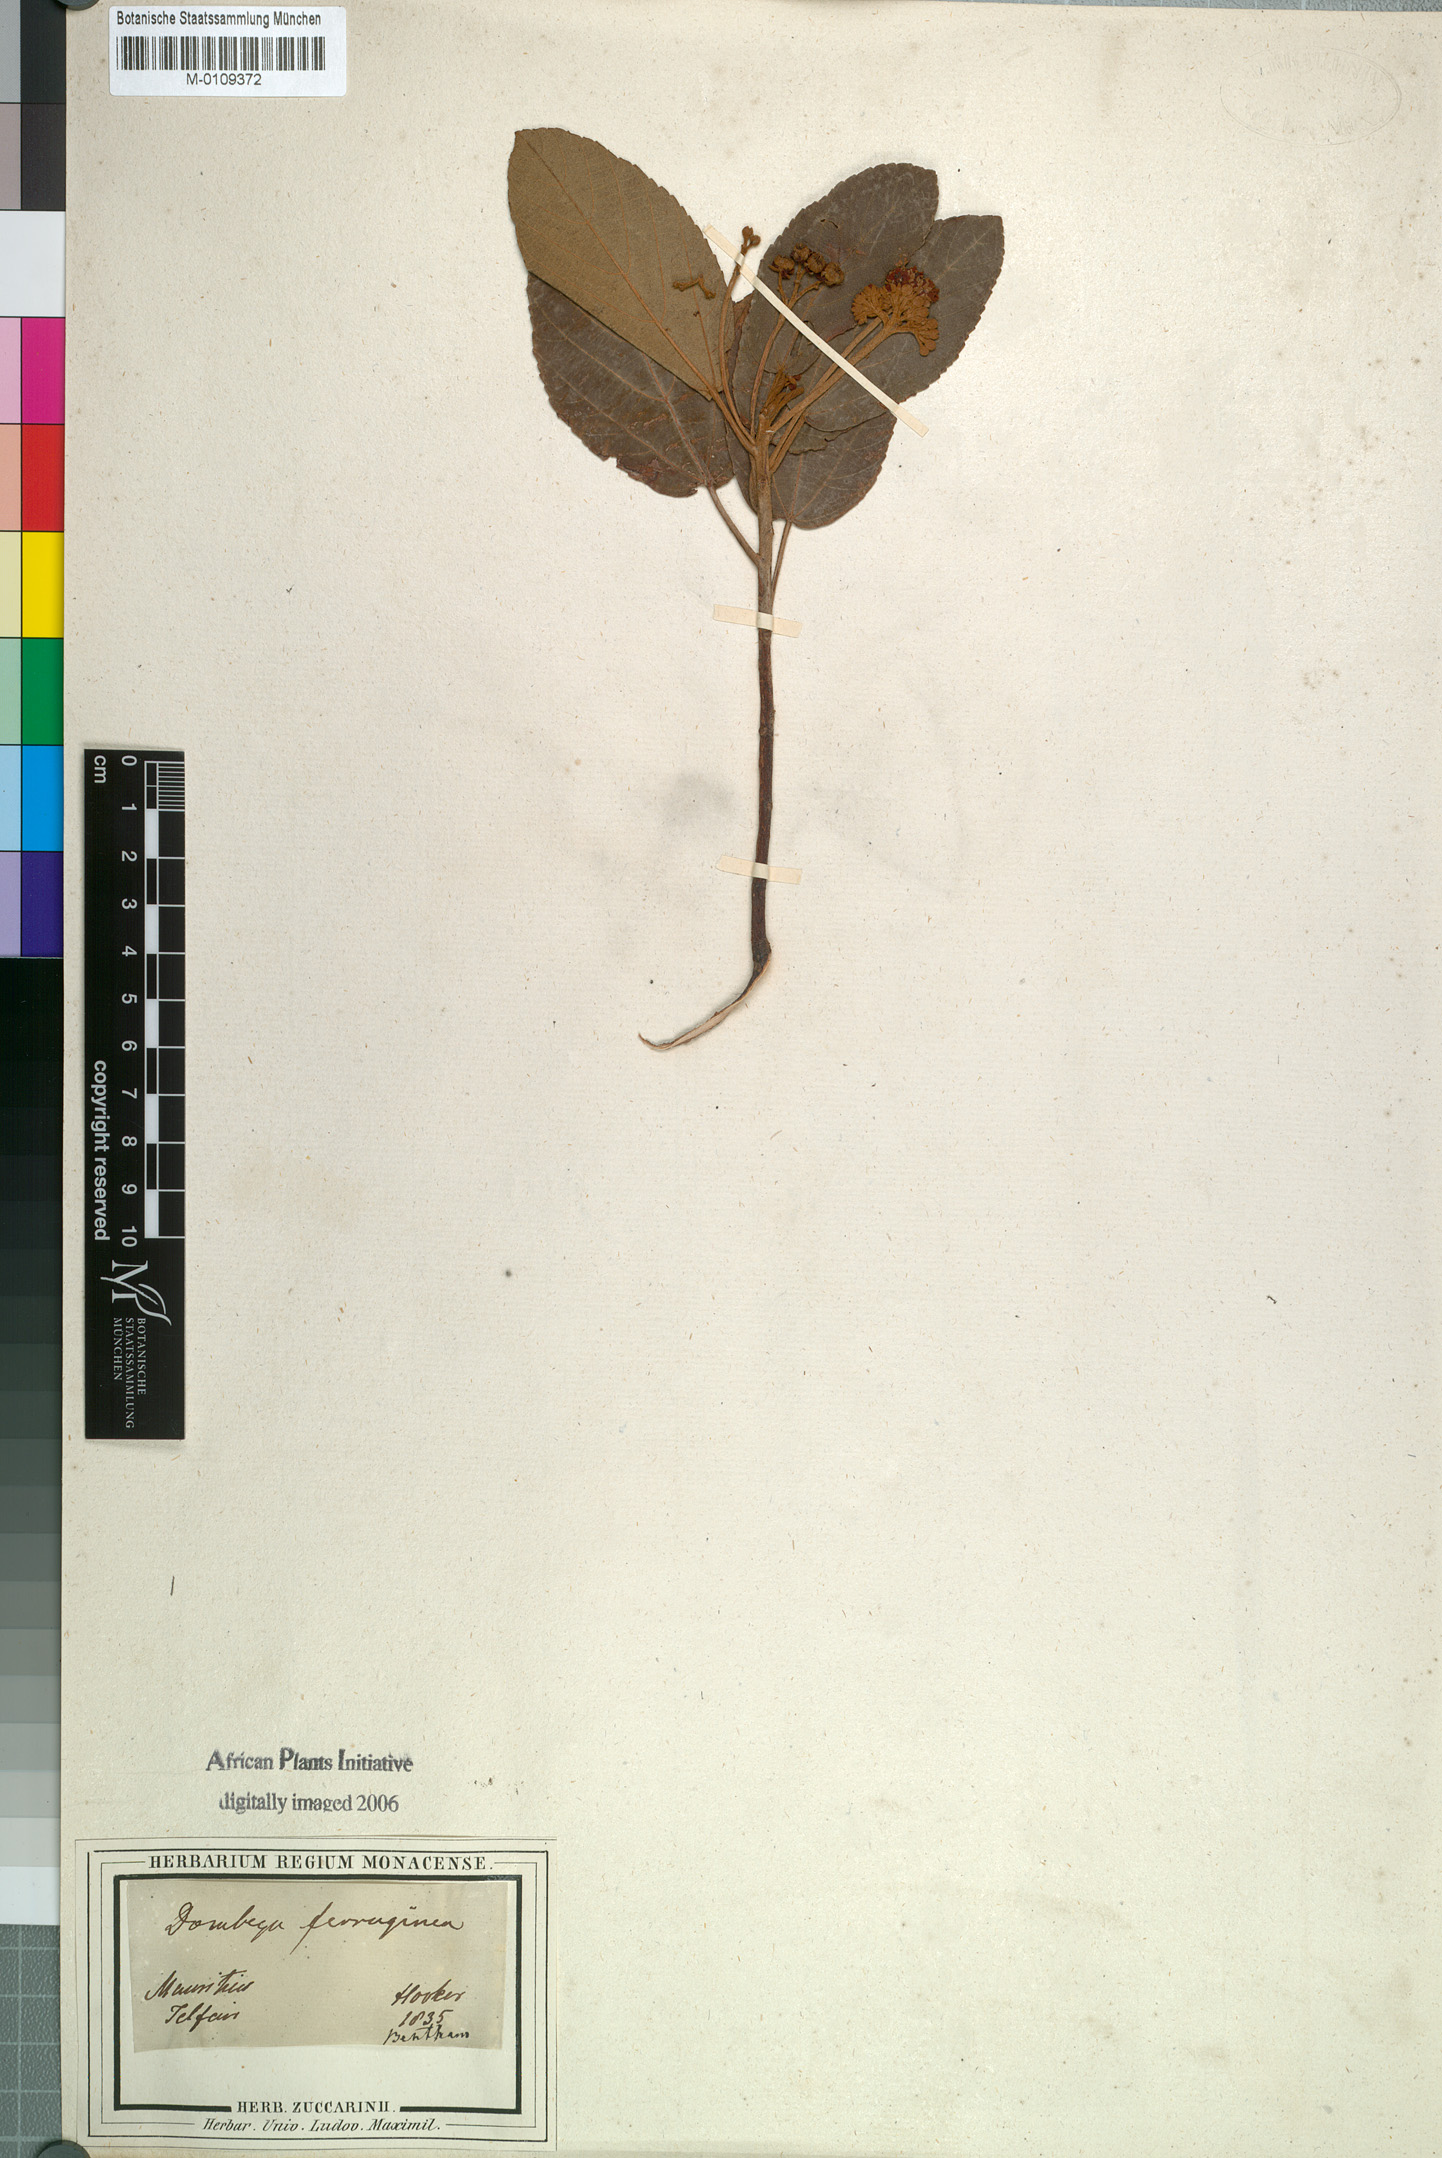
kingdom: Plantae
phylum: Tracheophyta
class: Magnoliopsida
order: Malvales
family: Malvaceae
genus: Ruizia
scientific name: Ruizia ferruginea
